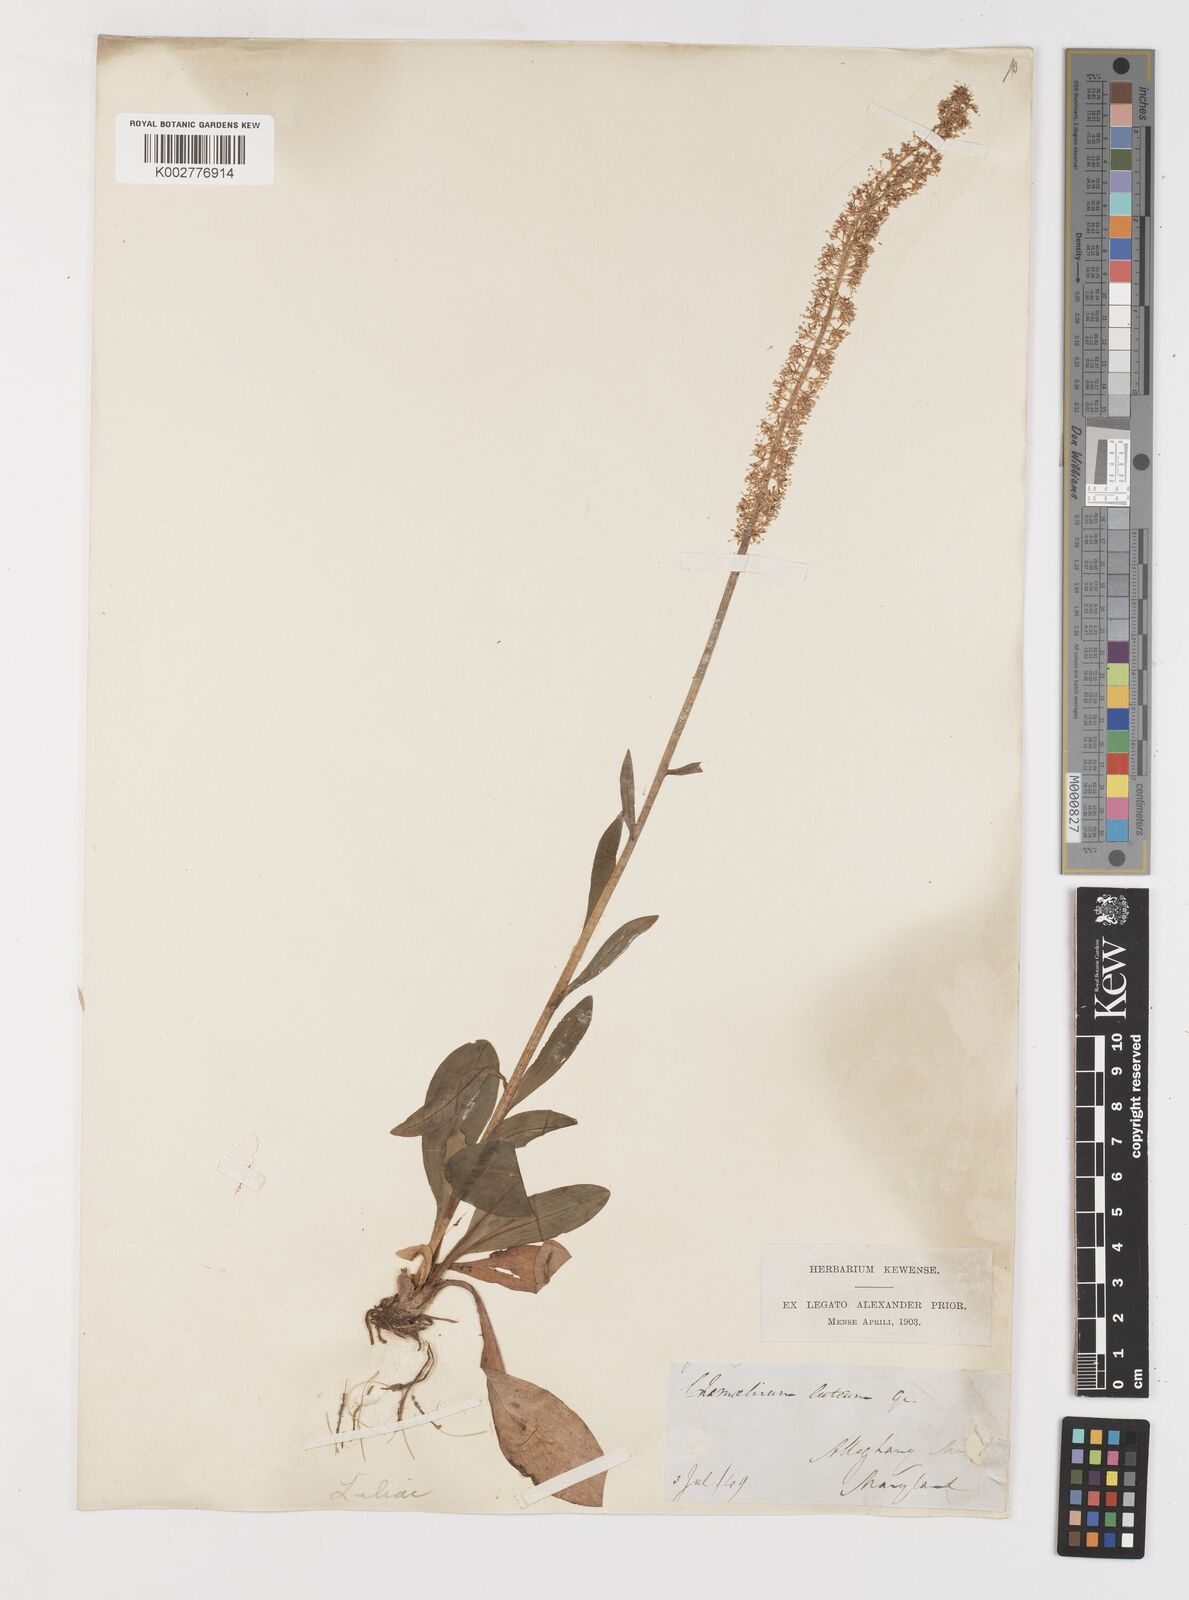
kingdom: Plantae
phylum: Tracheophyta
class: Liliopsida
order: Liliales
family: Melanthiaceae
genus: Chamaelirium
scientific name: Chamaelirium luteum
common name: Fairy-wand
